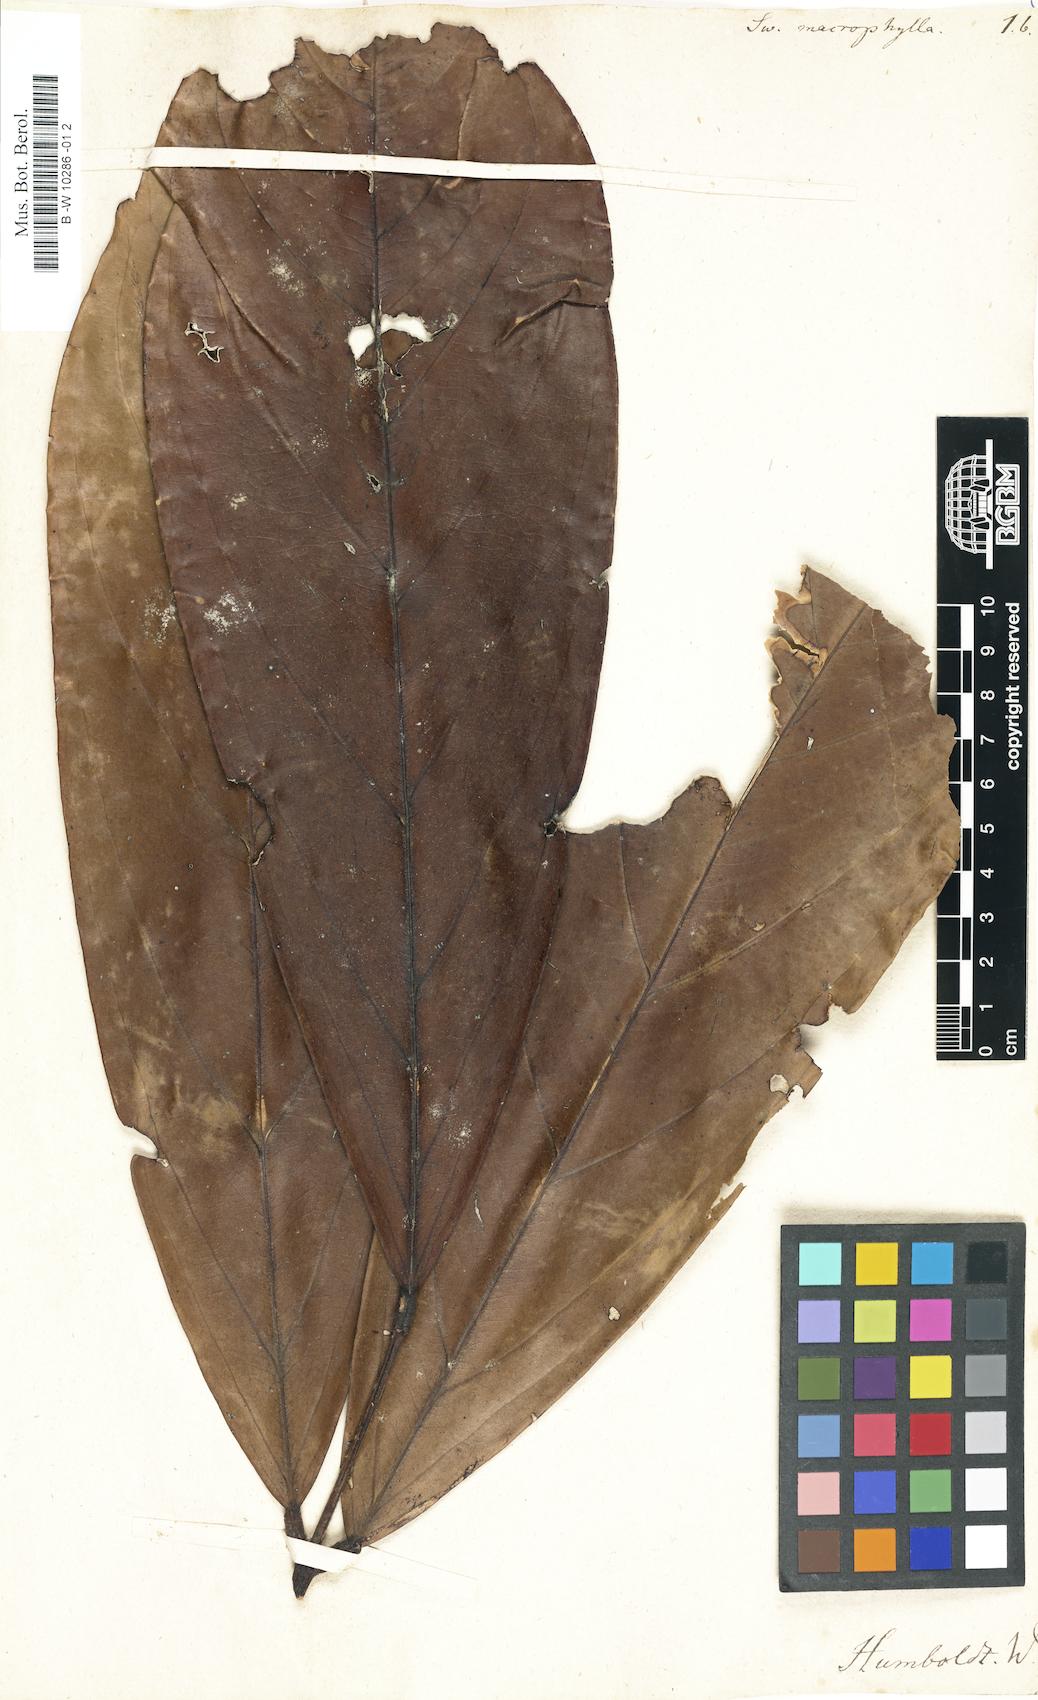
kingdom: Plantae
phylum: Tracheophyta
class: Magnoliopsida
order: Fabales
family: Fabaceae
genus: Swartzia
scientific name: Swartzia macrophylla
